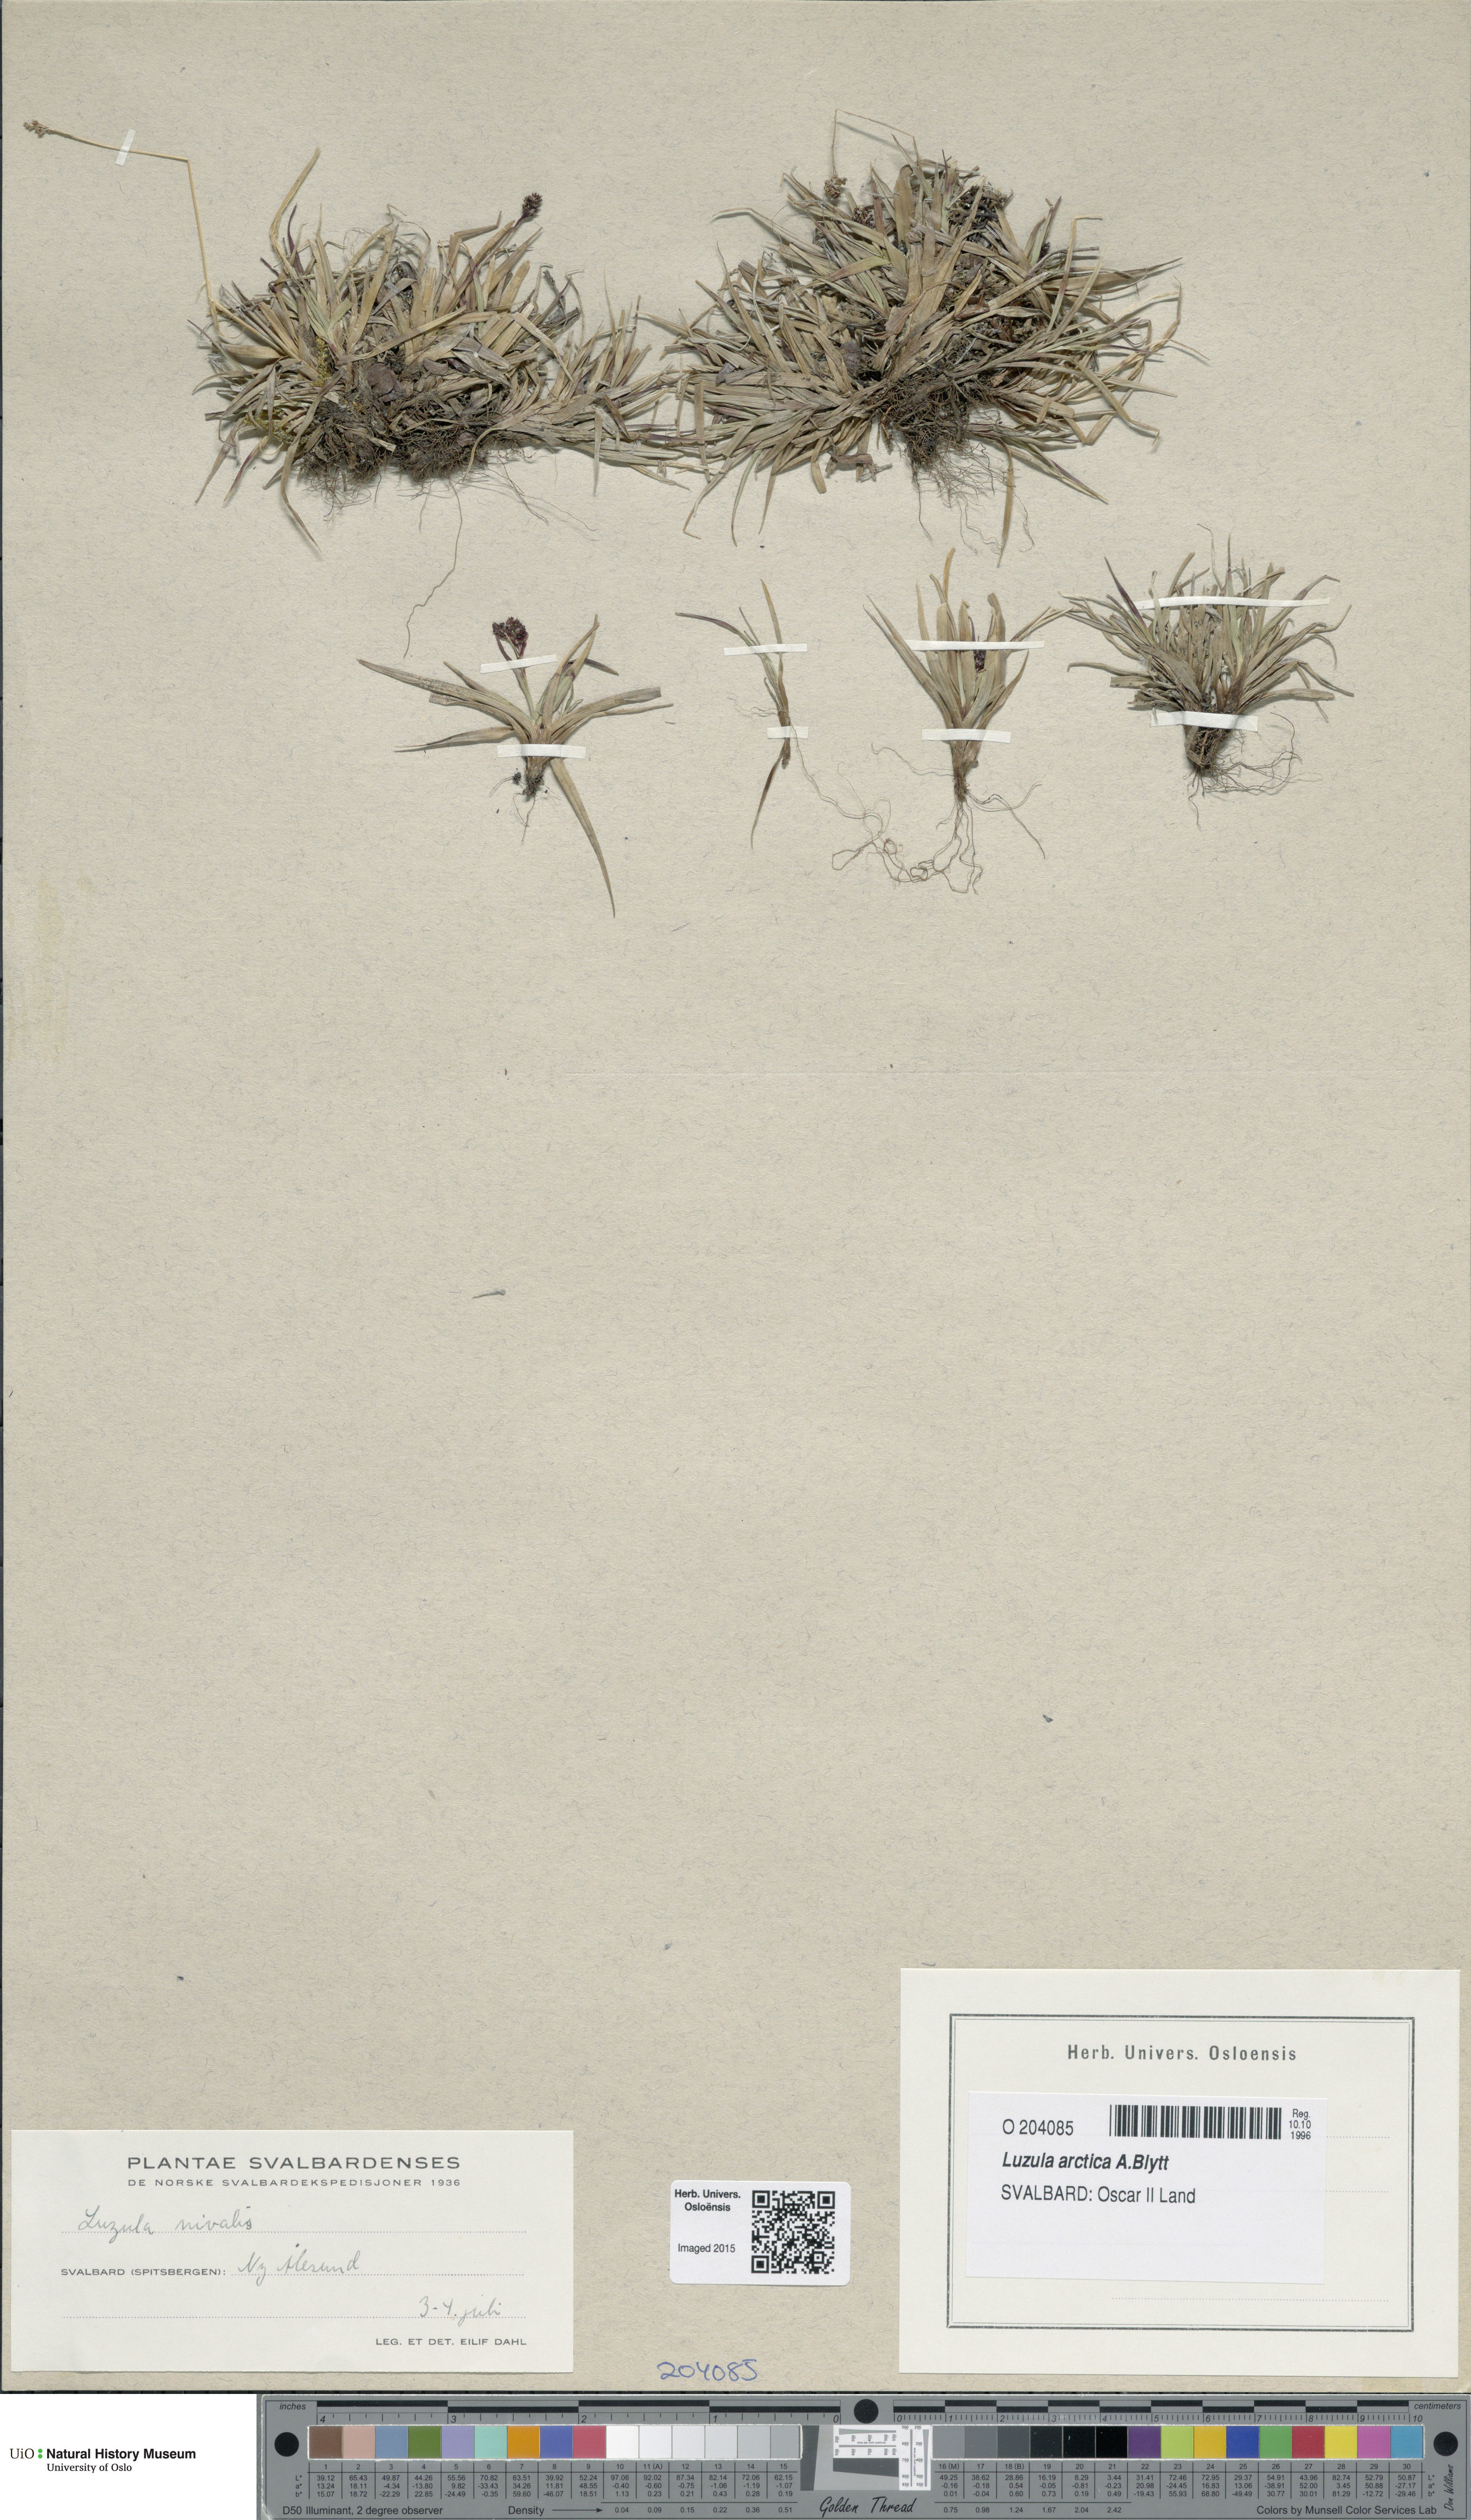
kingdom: Plantae
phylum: Tracheophyta
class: Liliopsida
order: Poales
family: Juncaceae
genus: Luzula
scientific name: Luzula nivalis
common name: Arctic woodrush
